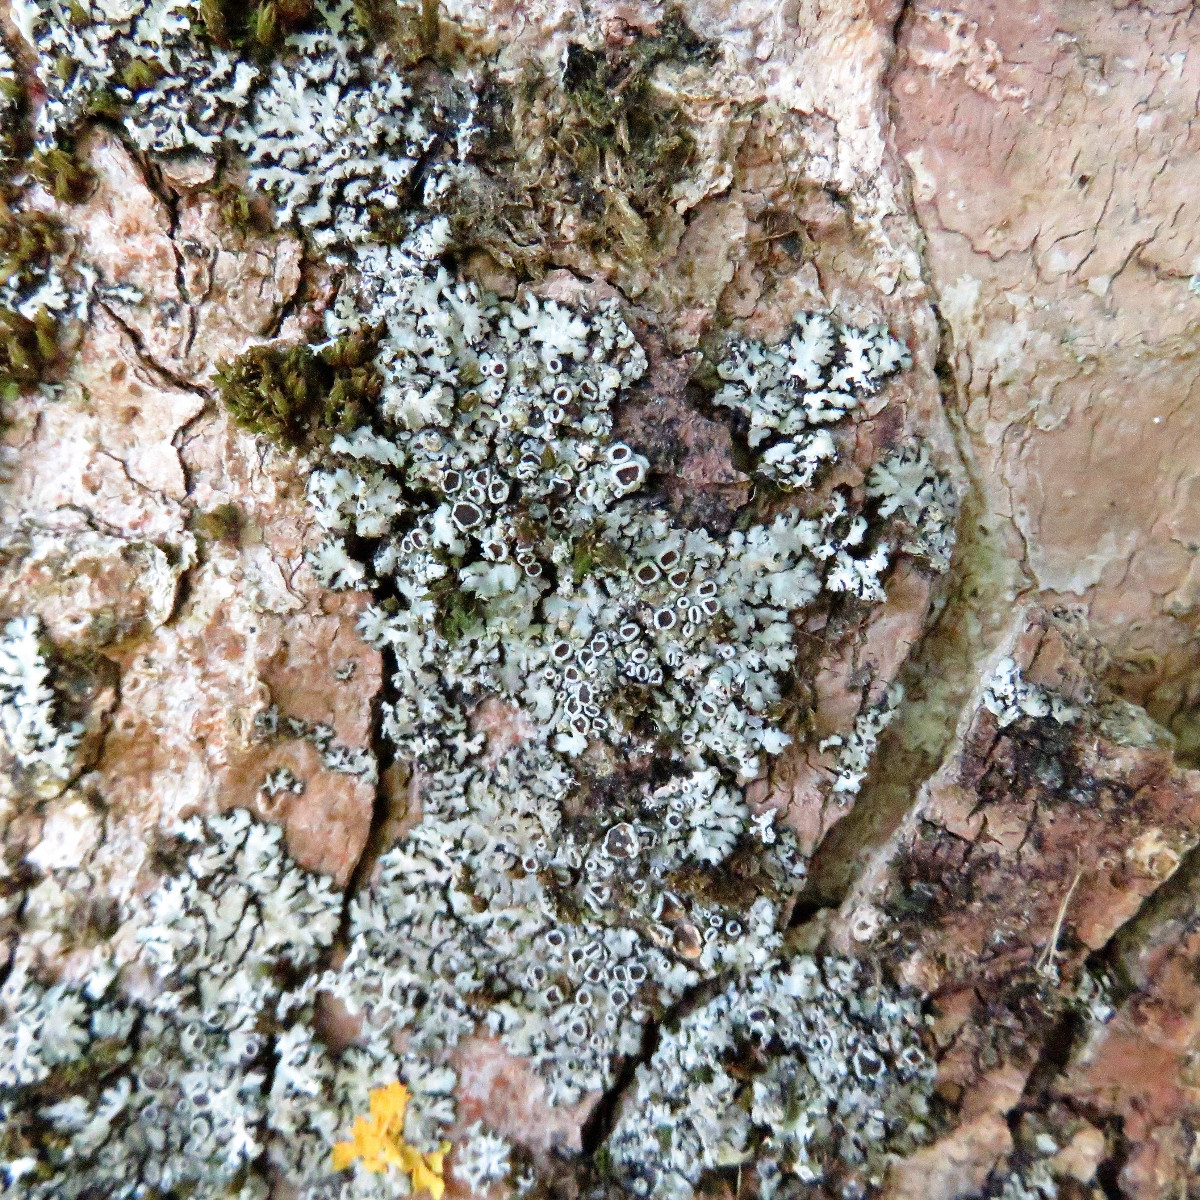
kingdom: Fungi
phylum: Ascomycota
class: Lecanoromycetes
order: Caliciales
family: Physciaceae
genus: Phaeophyscia
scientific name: Phaeophyscia orbicularis
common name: grågrøn rosetlav
